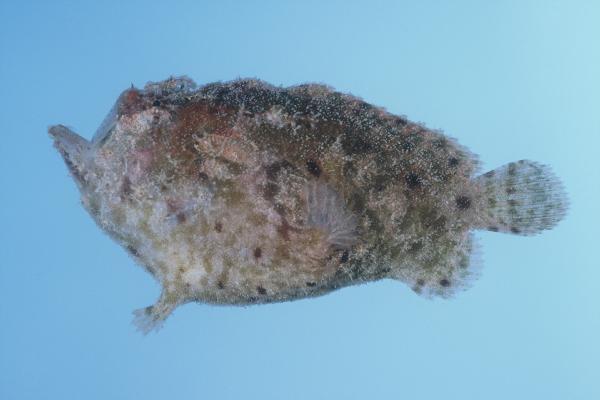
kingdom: Animalia
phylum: Chordata
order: Lophiiformes
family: Antennariidae
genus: Antennatus
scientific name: Antennatus coccineus
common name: Scarlet frogfish
